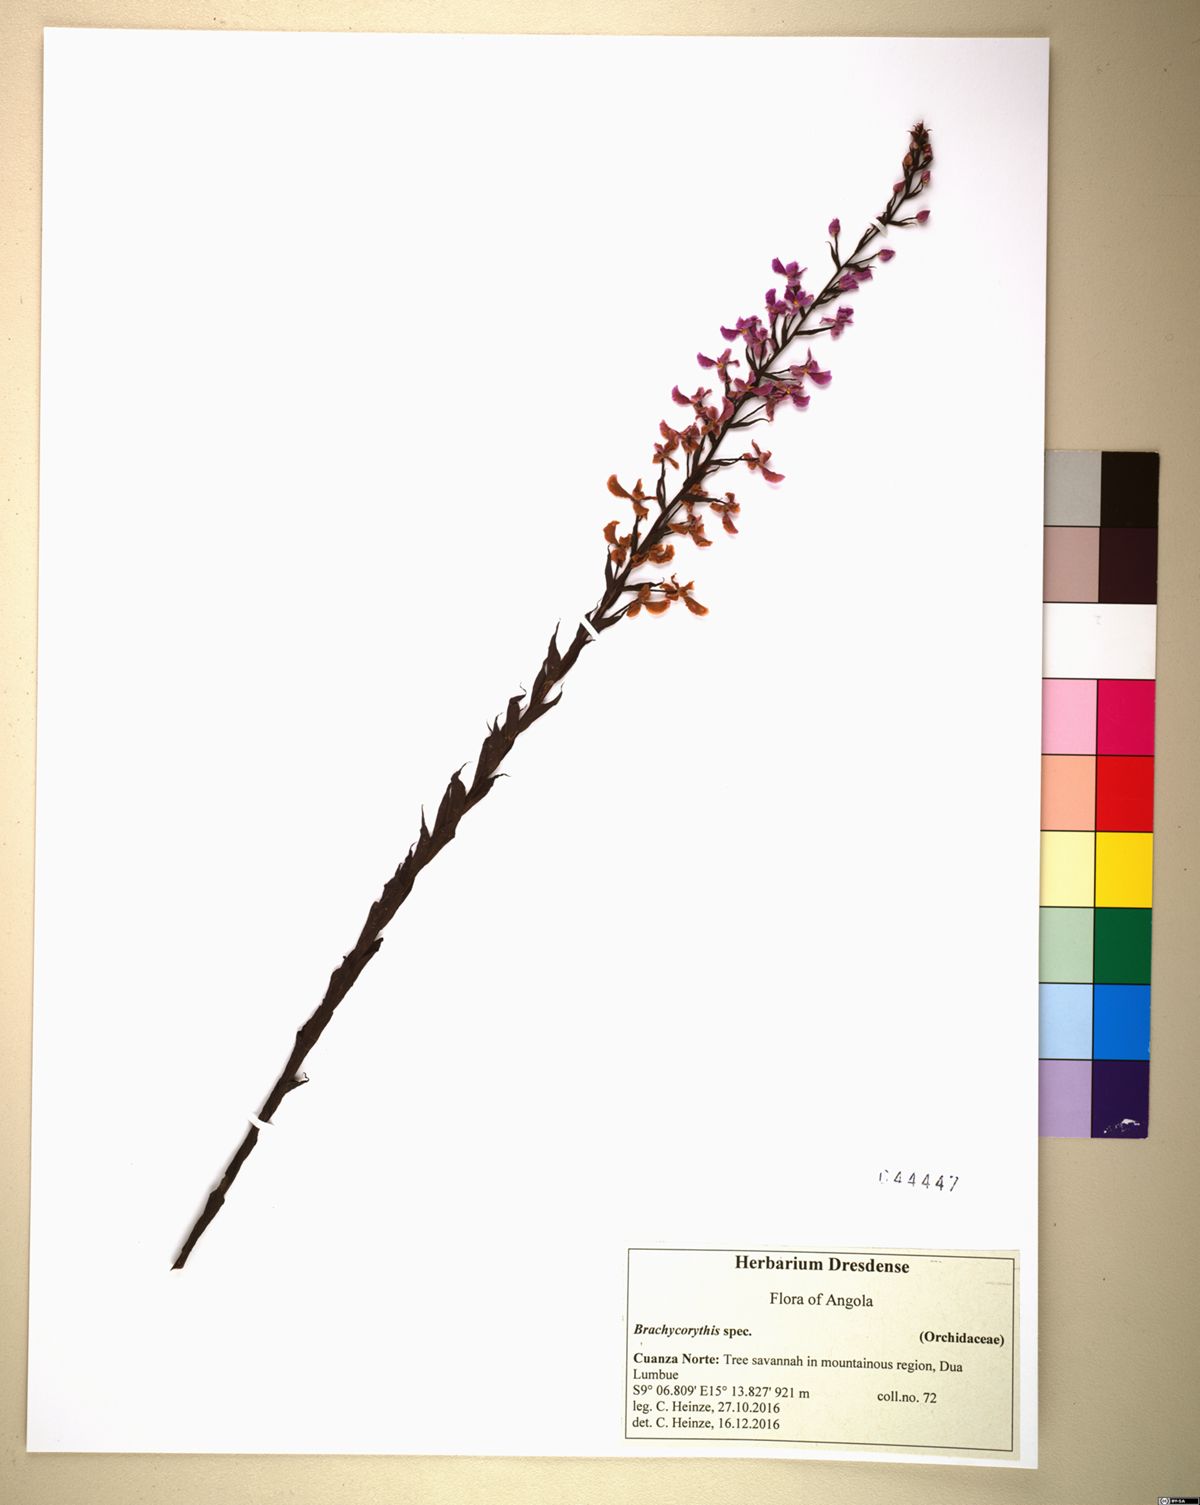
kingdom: Plantae
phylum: Tracheophyta
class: Liliopsida
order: Asparagales
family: Orchidaceae
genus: Brachycorythis
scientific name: Brachycorythis pleistophylla
